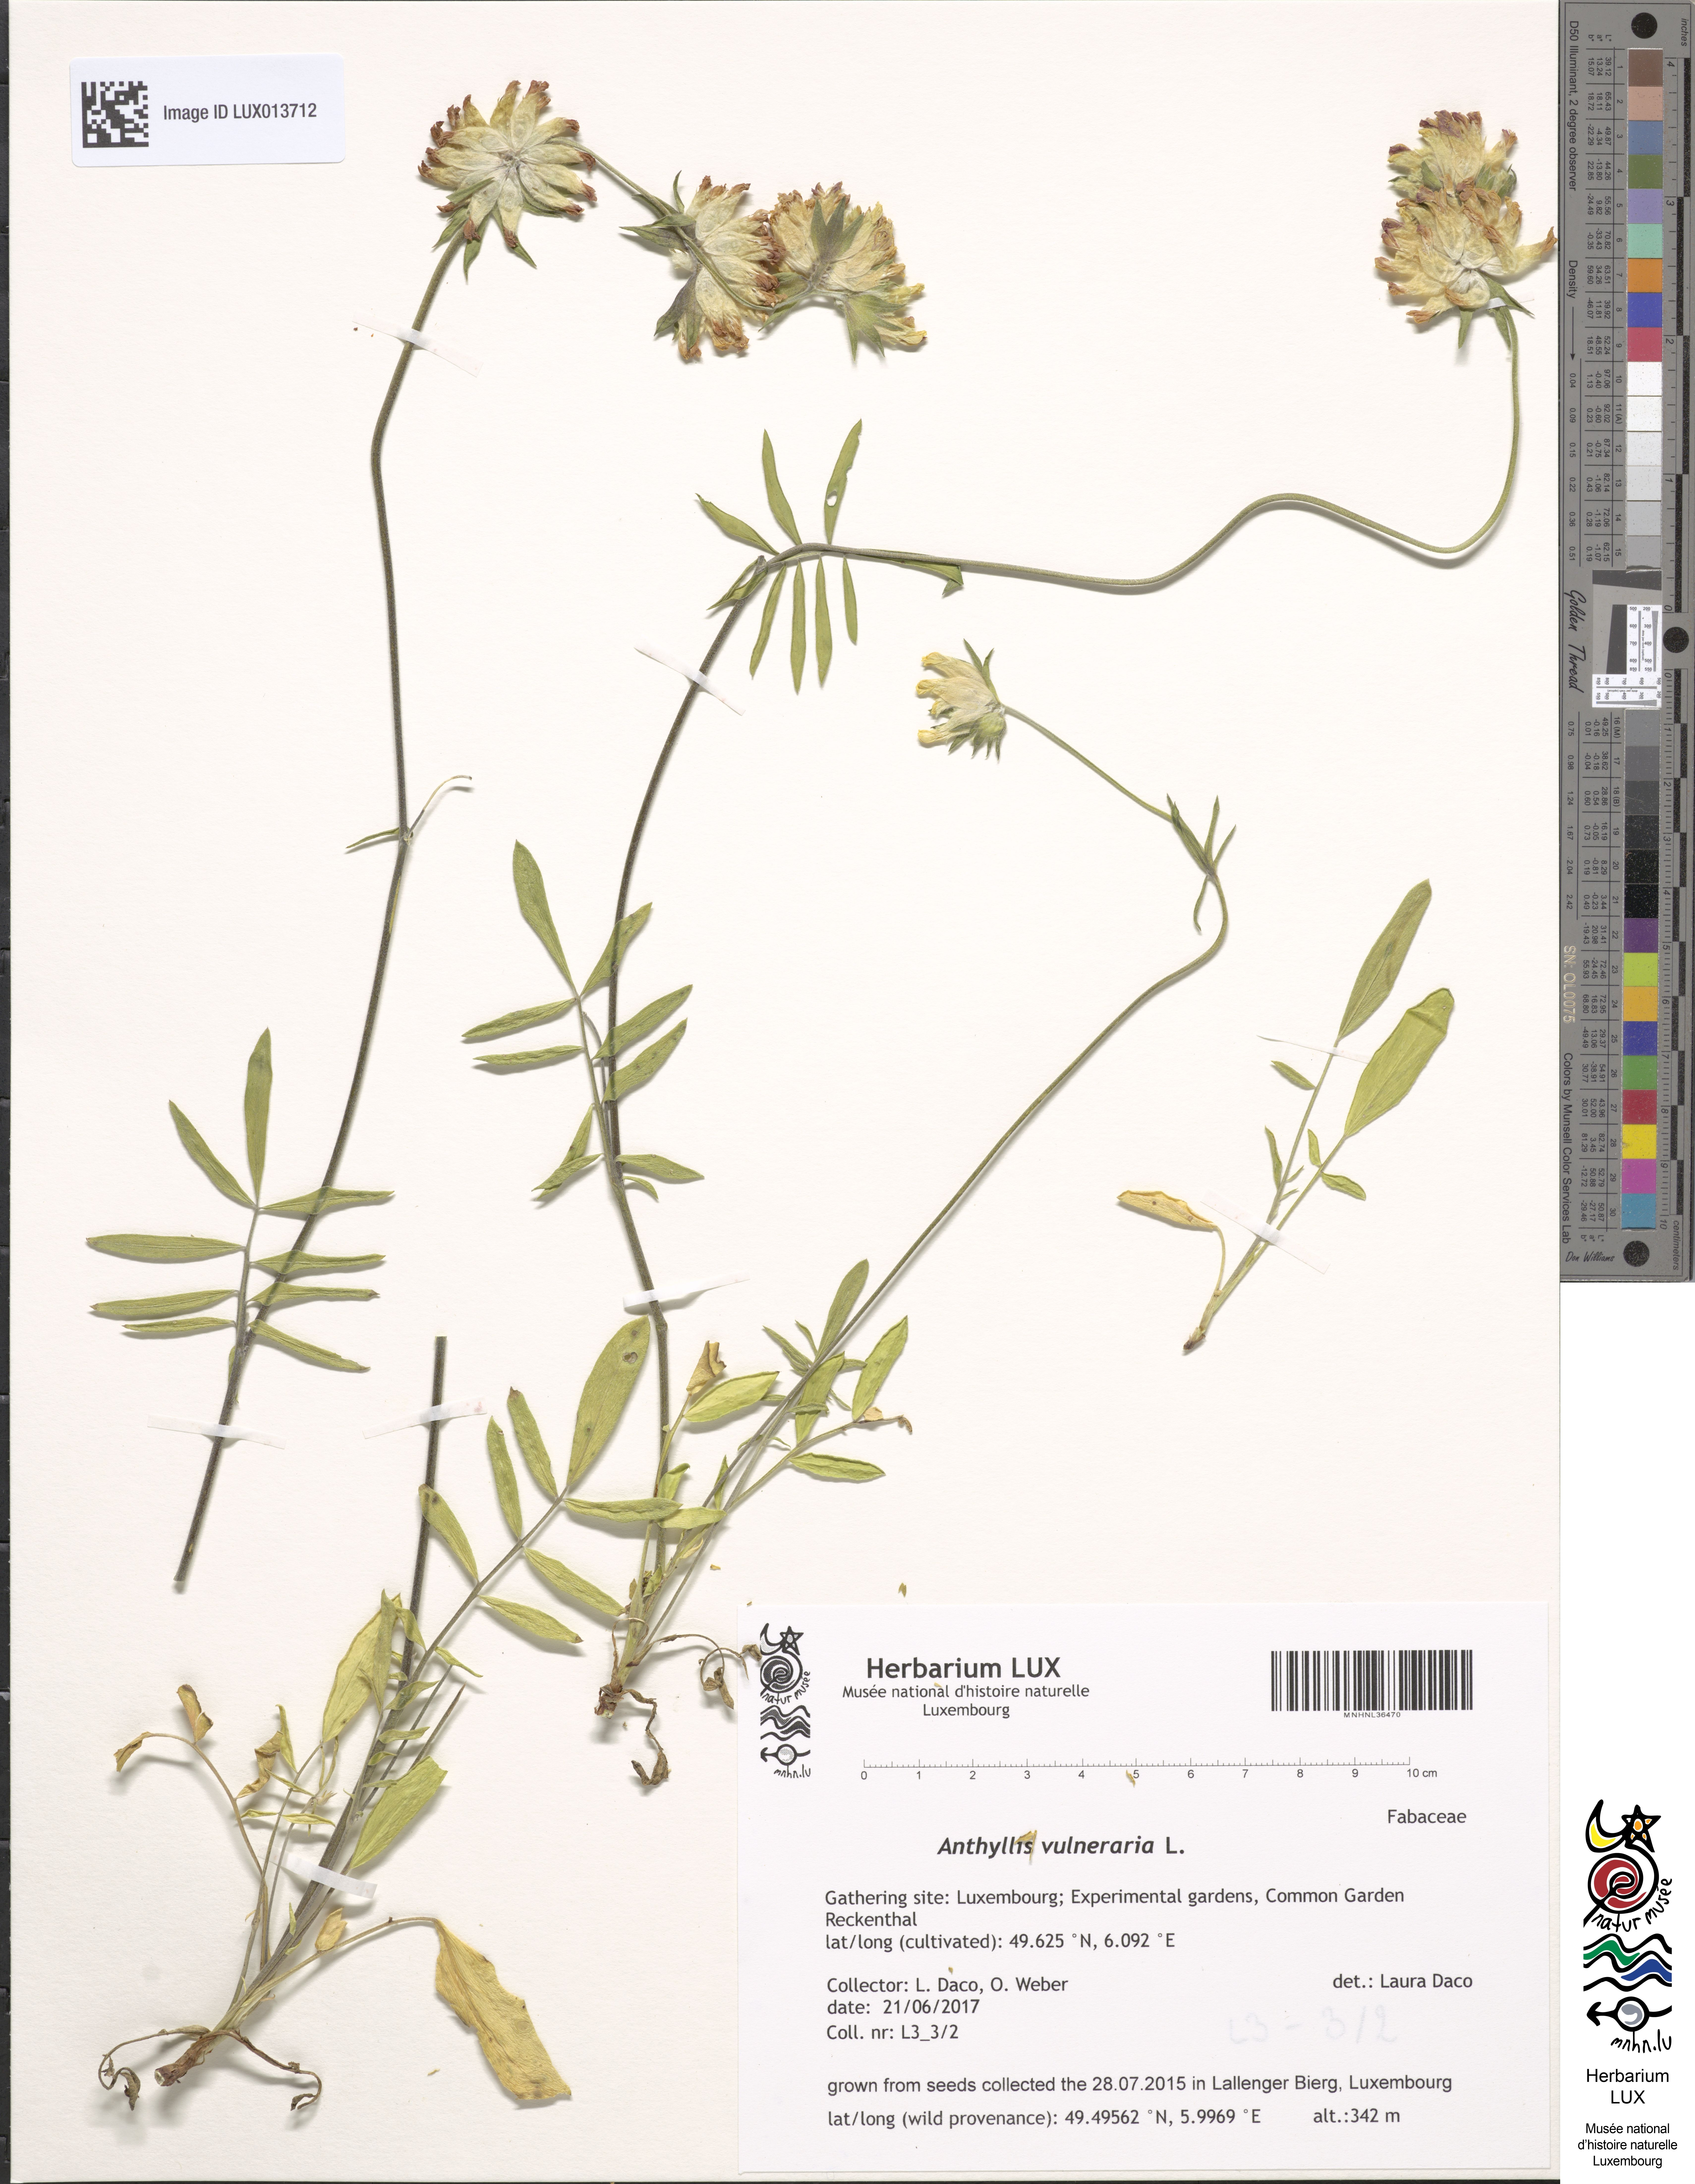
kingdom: Plantae
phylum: Tracheophyta
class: Magnoliopsida
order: Fabales
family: Fabaceae
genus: Anthyllis
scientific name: Anthyllis vulneraria
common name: Kidney vetch
